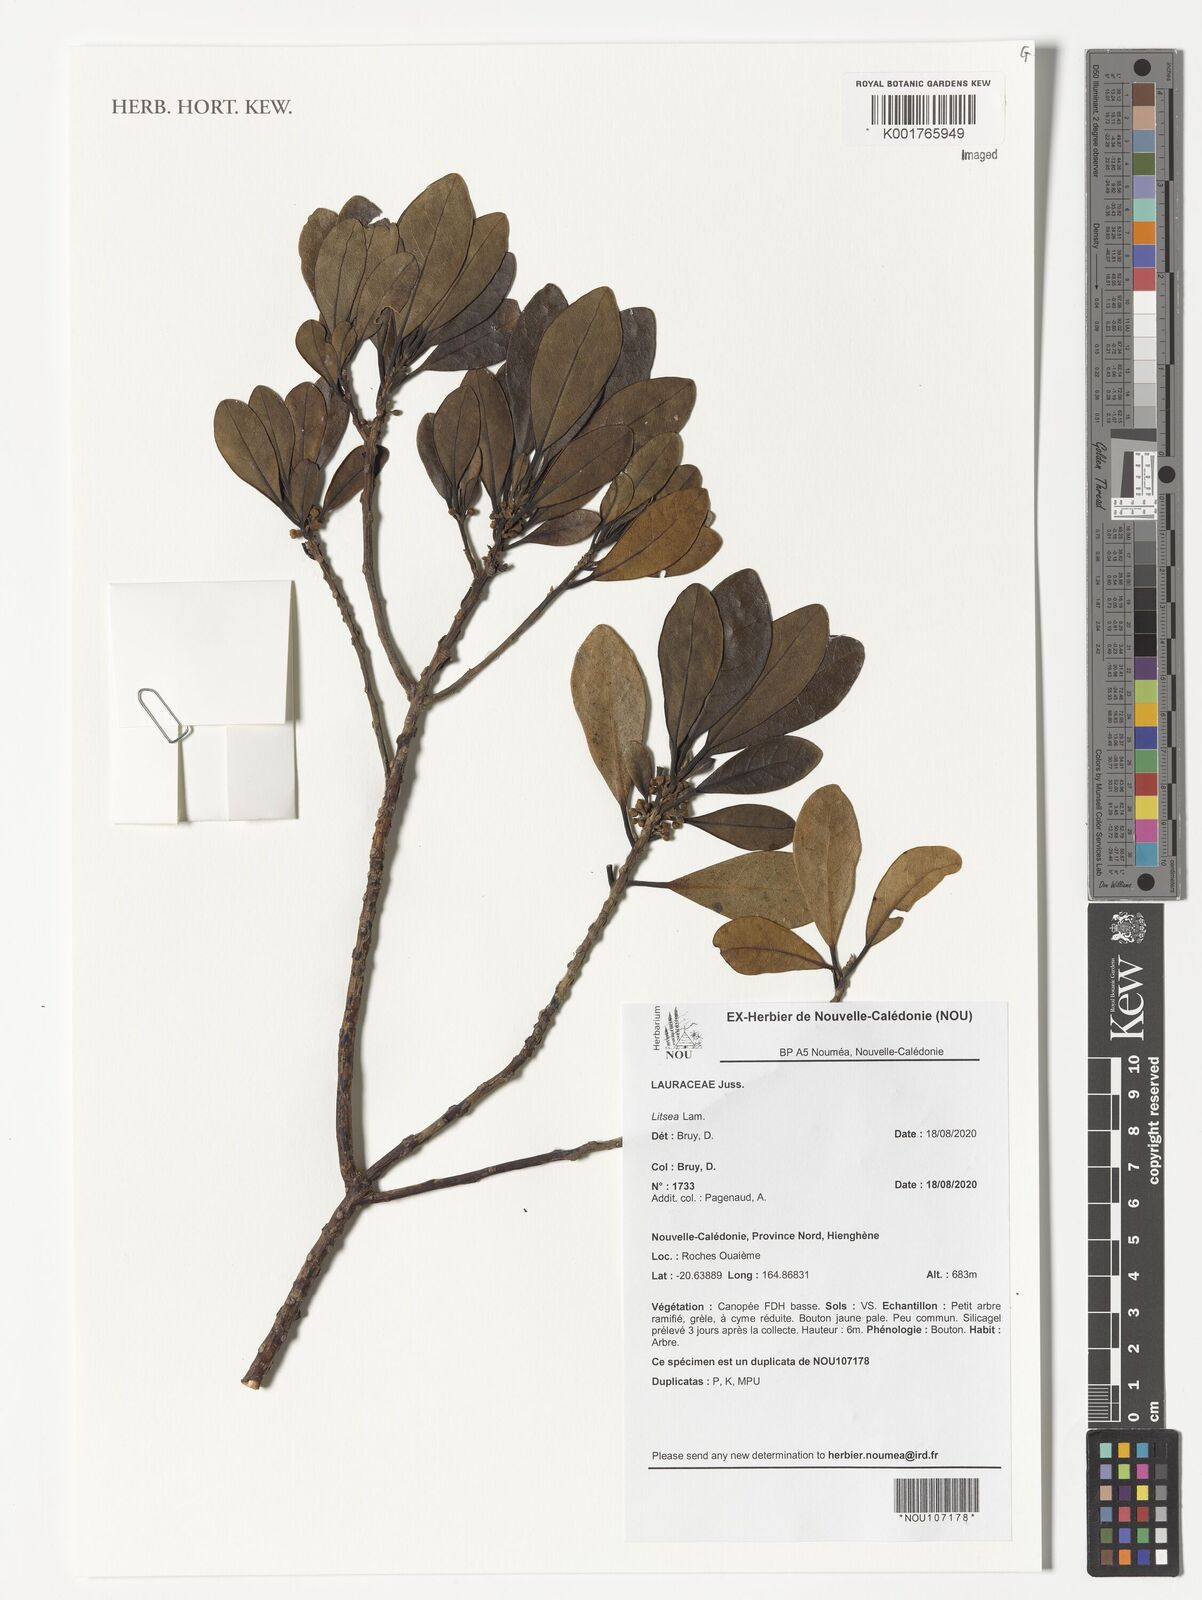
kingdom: Plantae
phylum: Tracheophyta
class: Magnoliopsida
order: Laurales
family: Lauraceae
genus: Litsea
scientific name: Litsea
